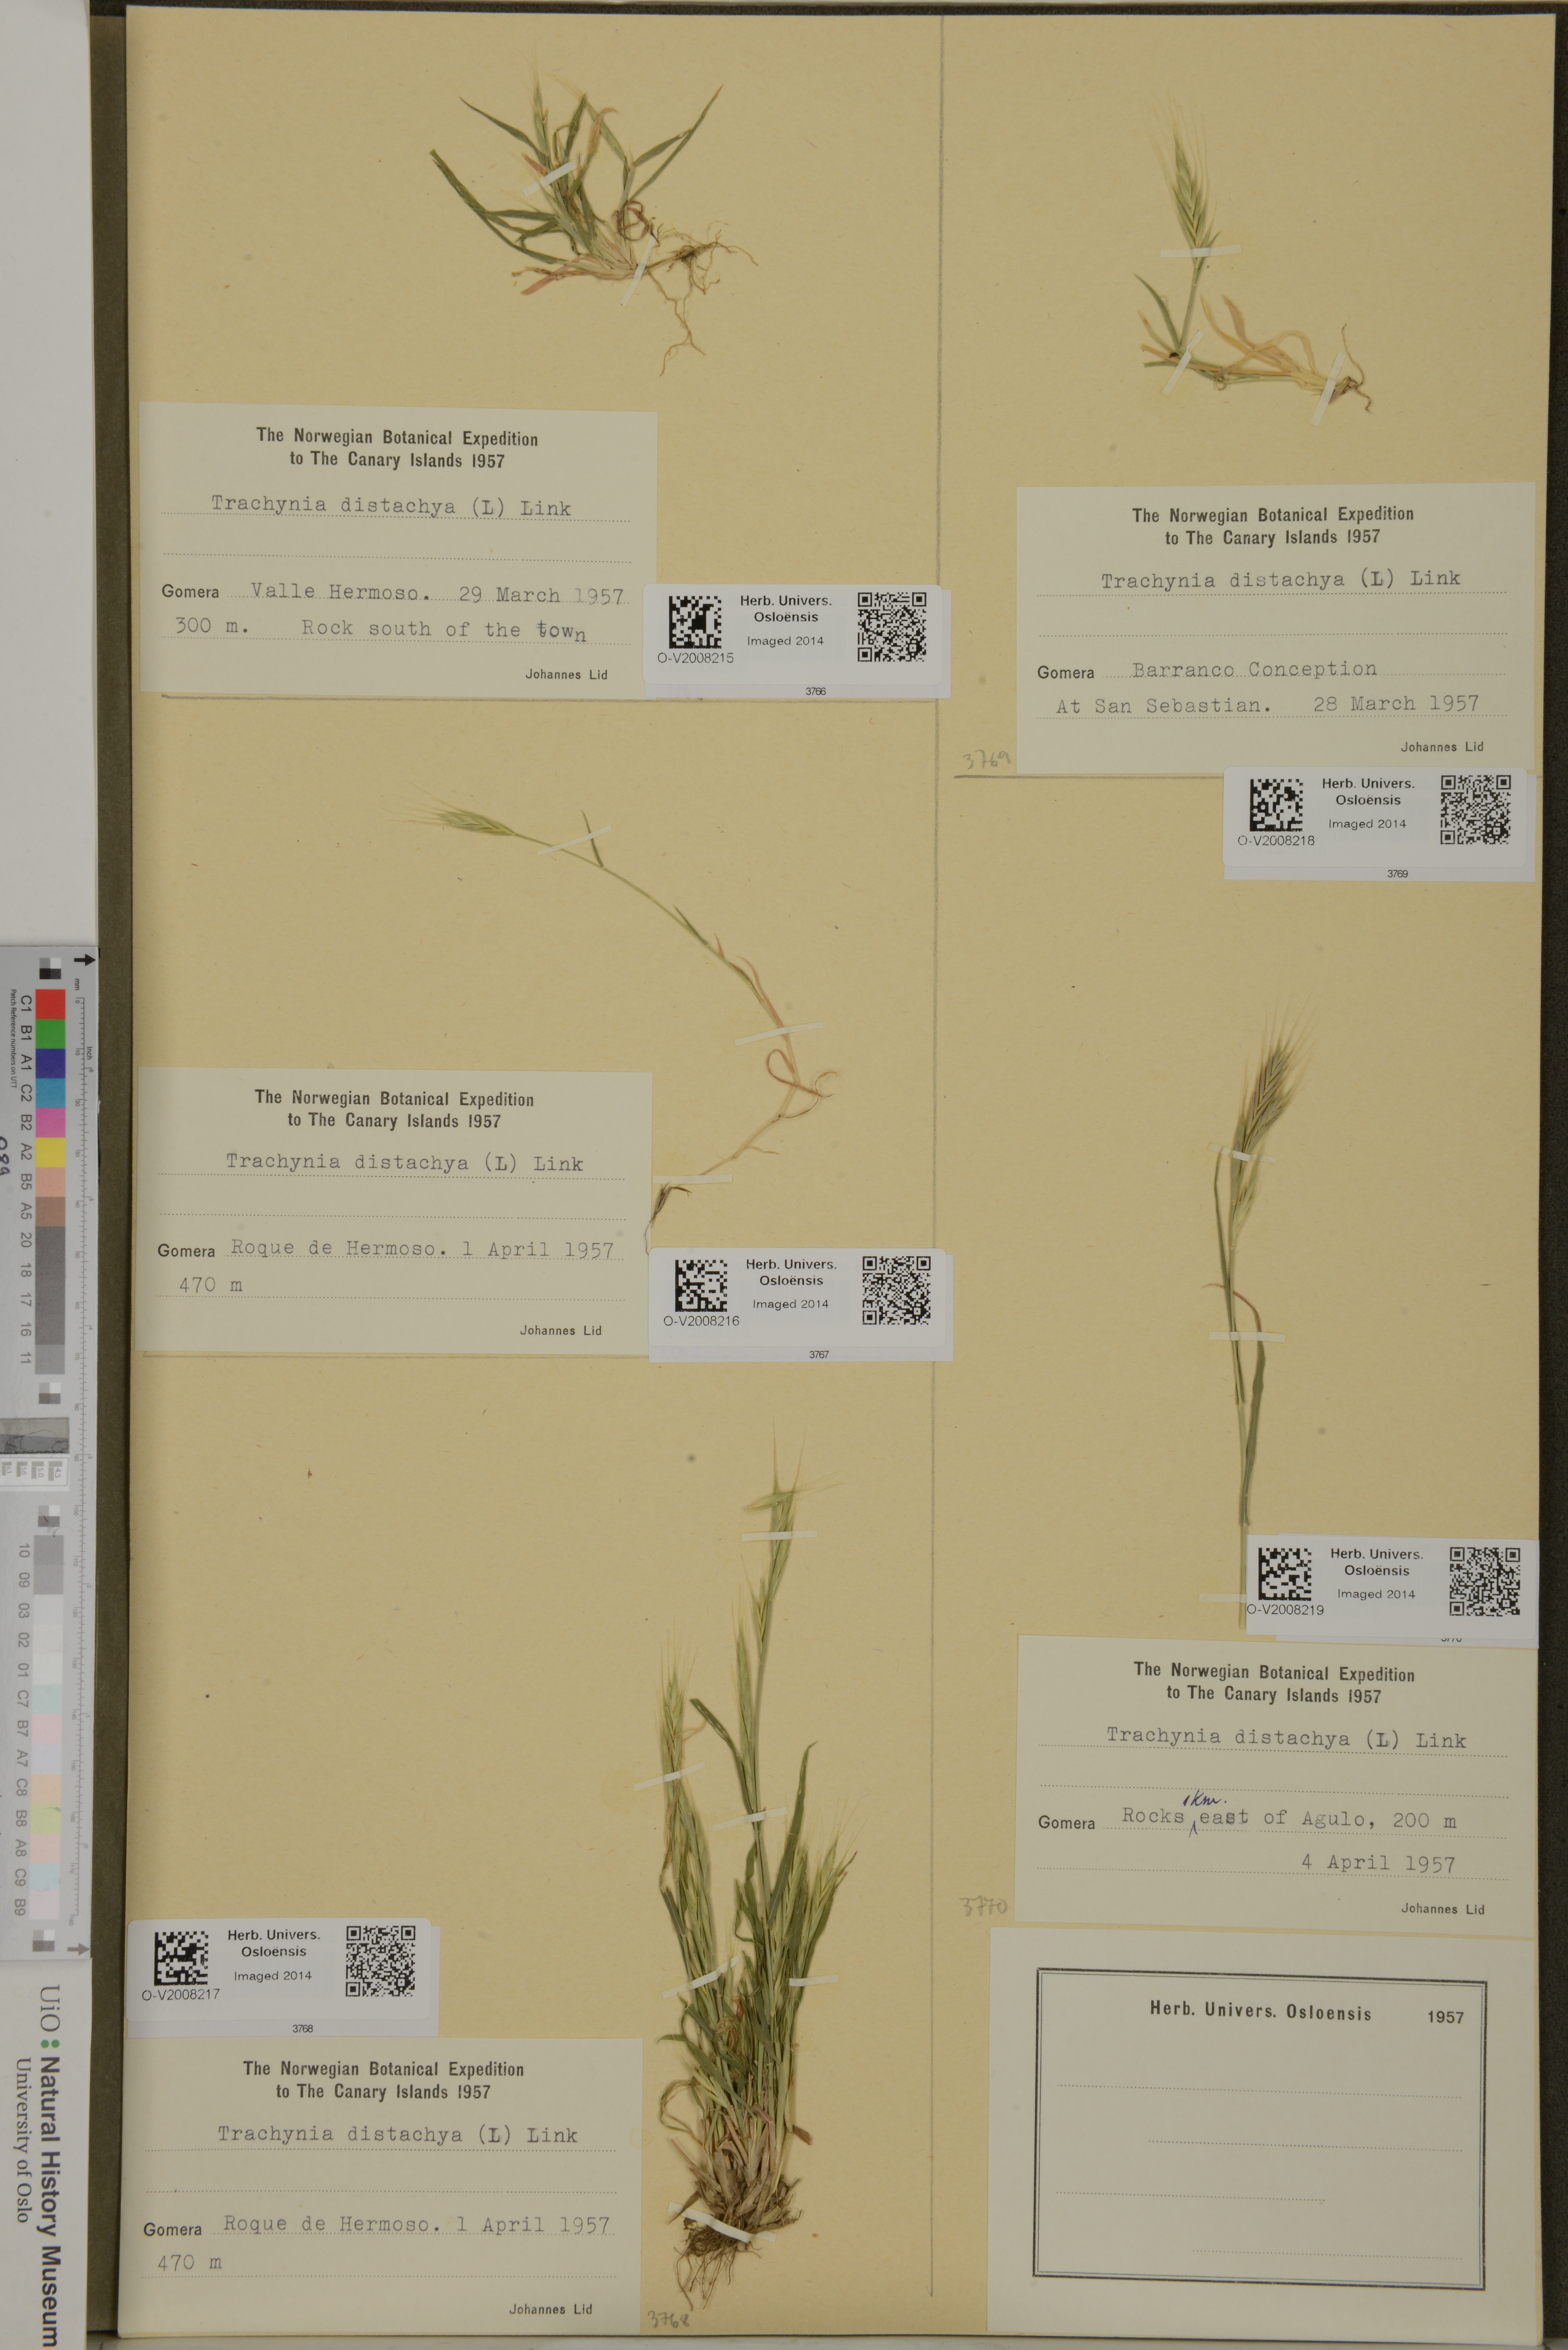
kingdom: Plantae
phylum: Tracheophyta
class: Liliopsida
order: Poales
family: Poaceae
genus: Brachypodium
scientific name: Brachypodium distachyon
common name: Stiff brome
